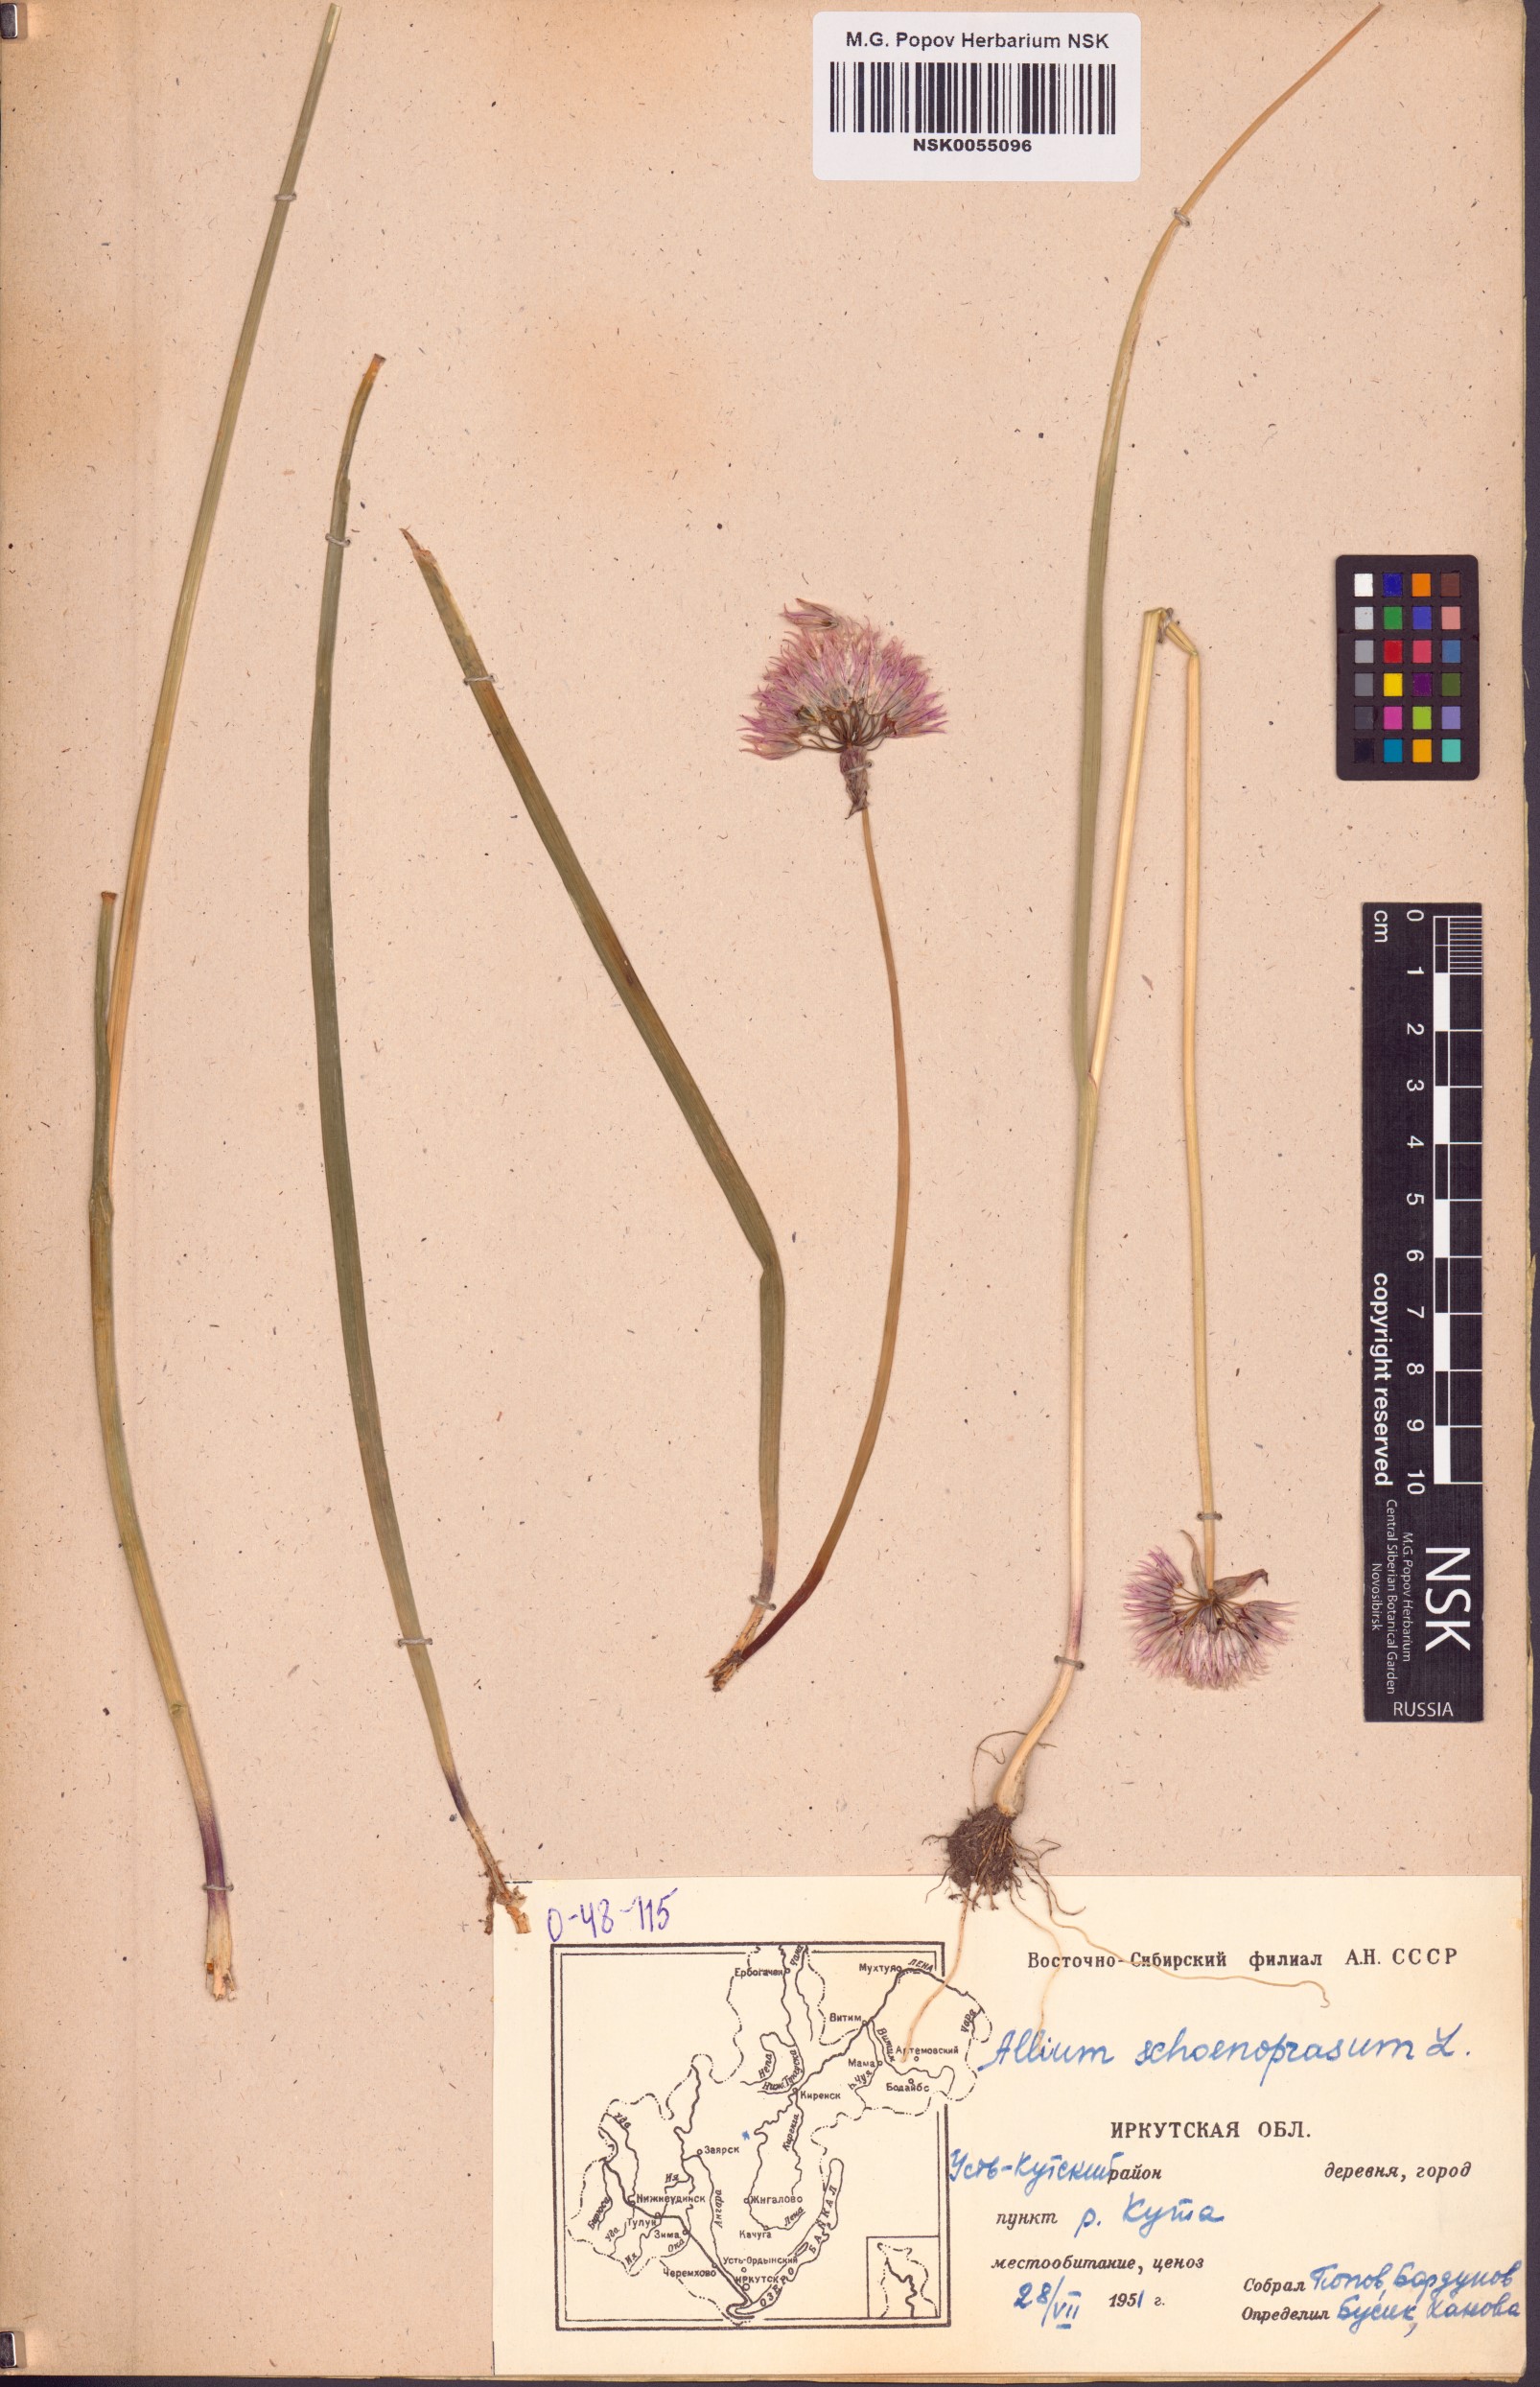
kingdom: Plantae
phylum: Tracheophyta
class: Liliopsida
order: Asparagales
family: Amaryllidaceae
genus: Allium
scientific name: Allium schoenoprasum
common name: Chives
